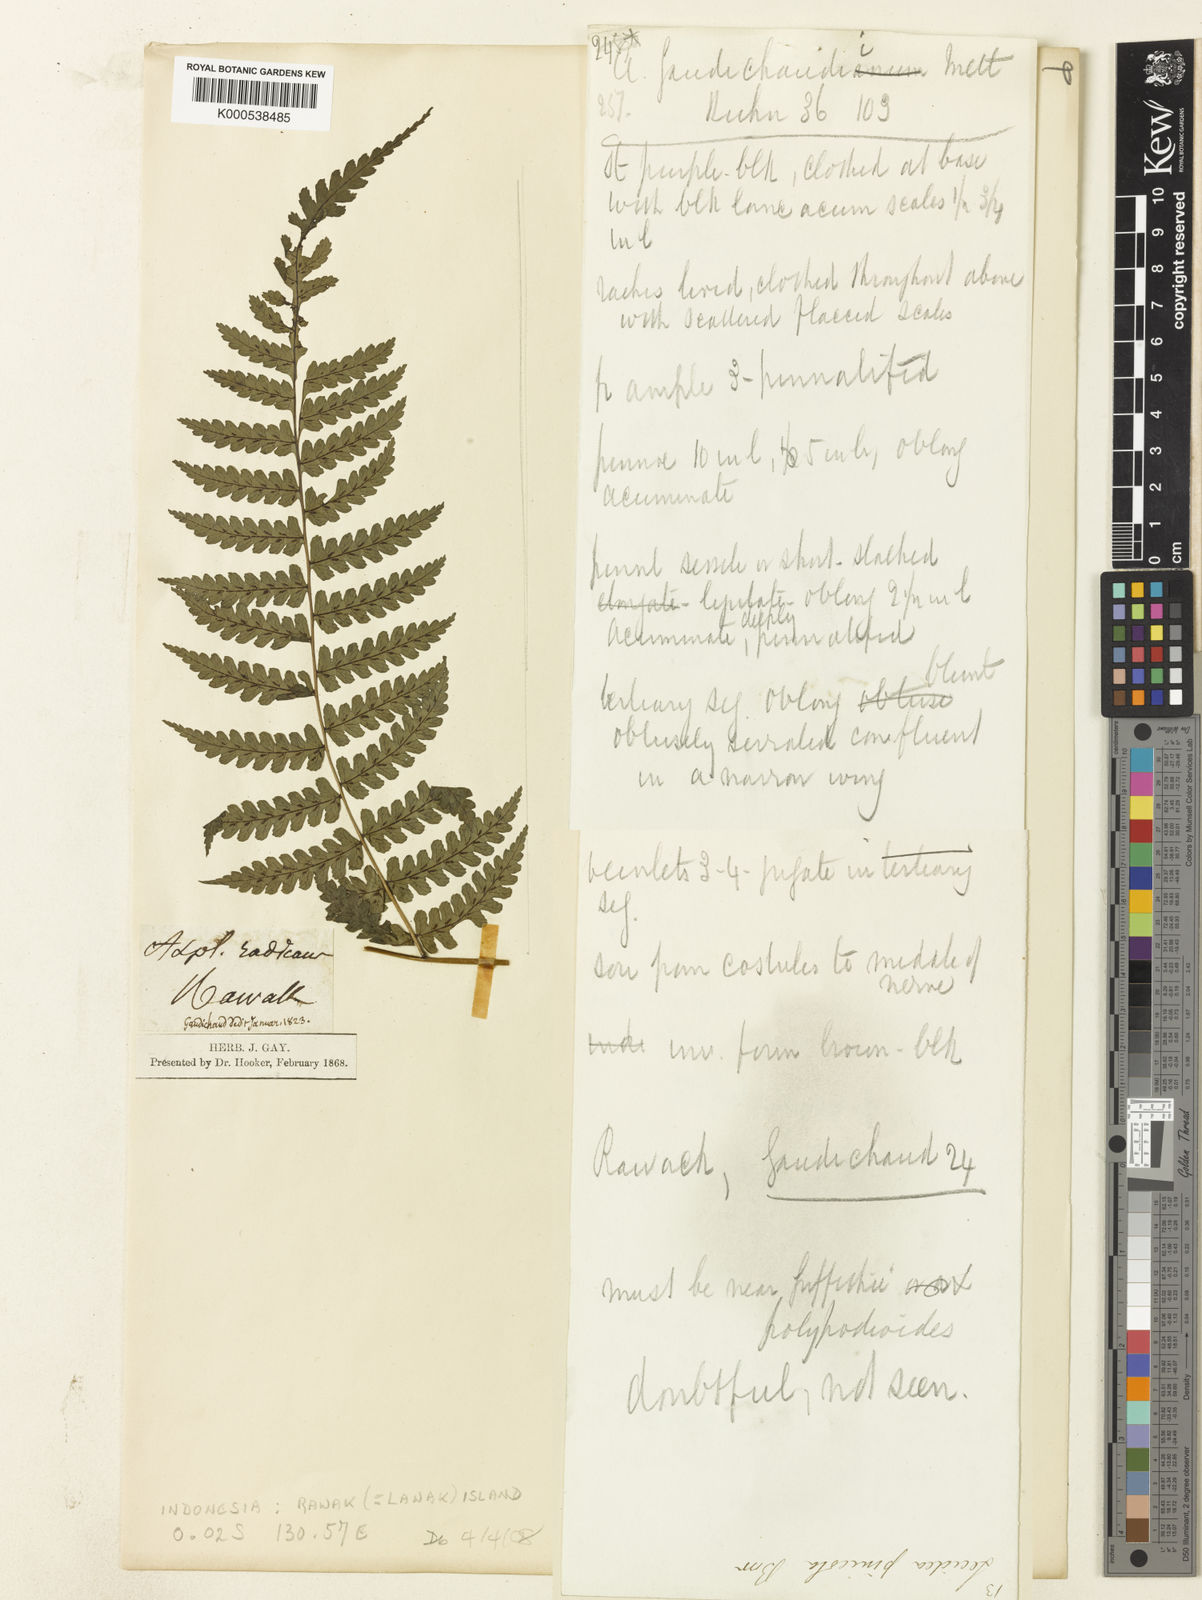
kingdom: Plantae
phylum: Tracheophyta
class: Polypodiopsida
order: Polypodiales
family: Thelypteridaceae
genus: Christella
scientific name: Christella parasitica
